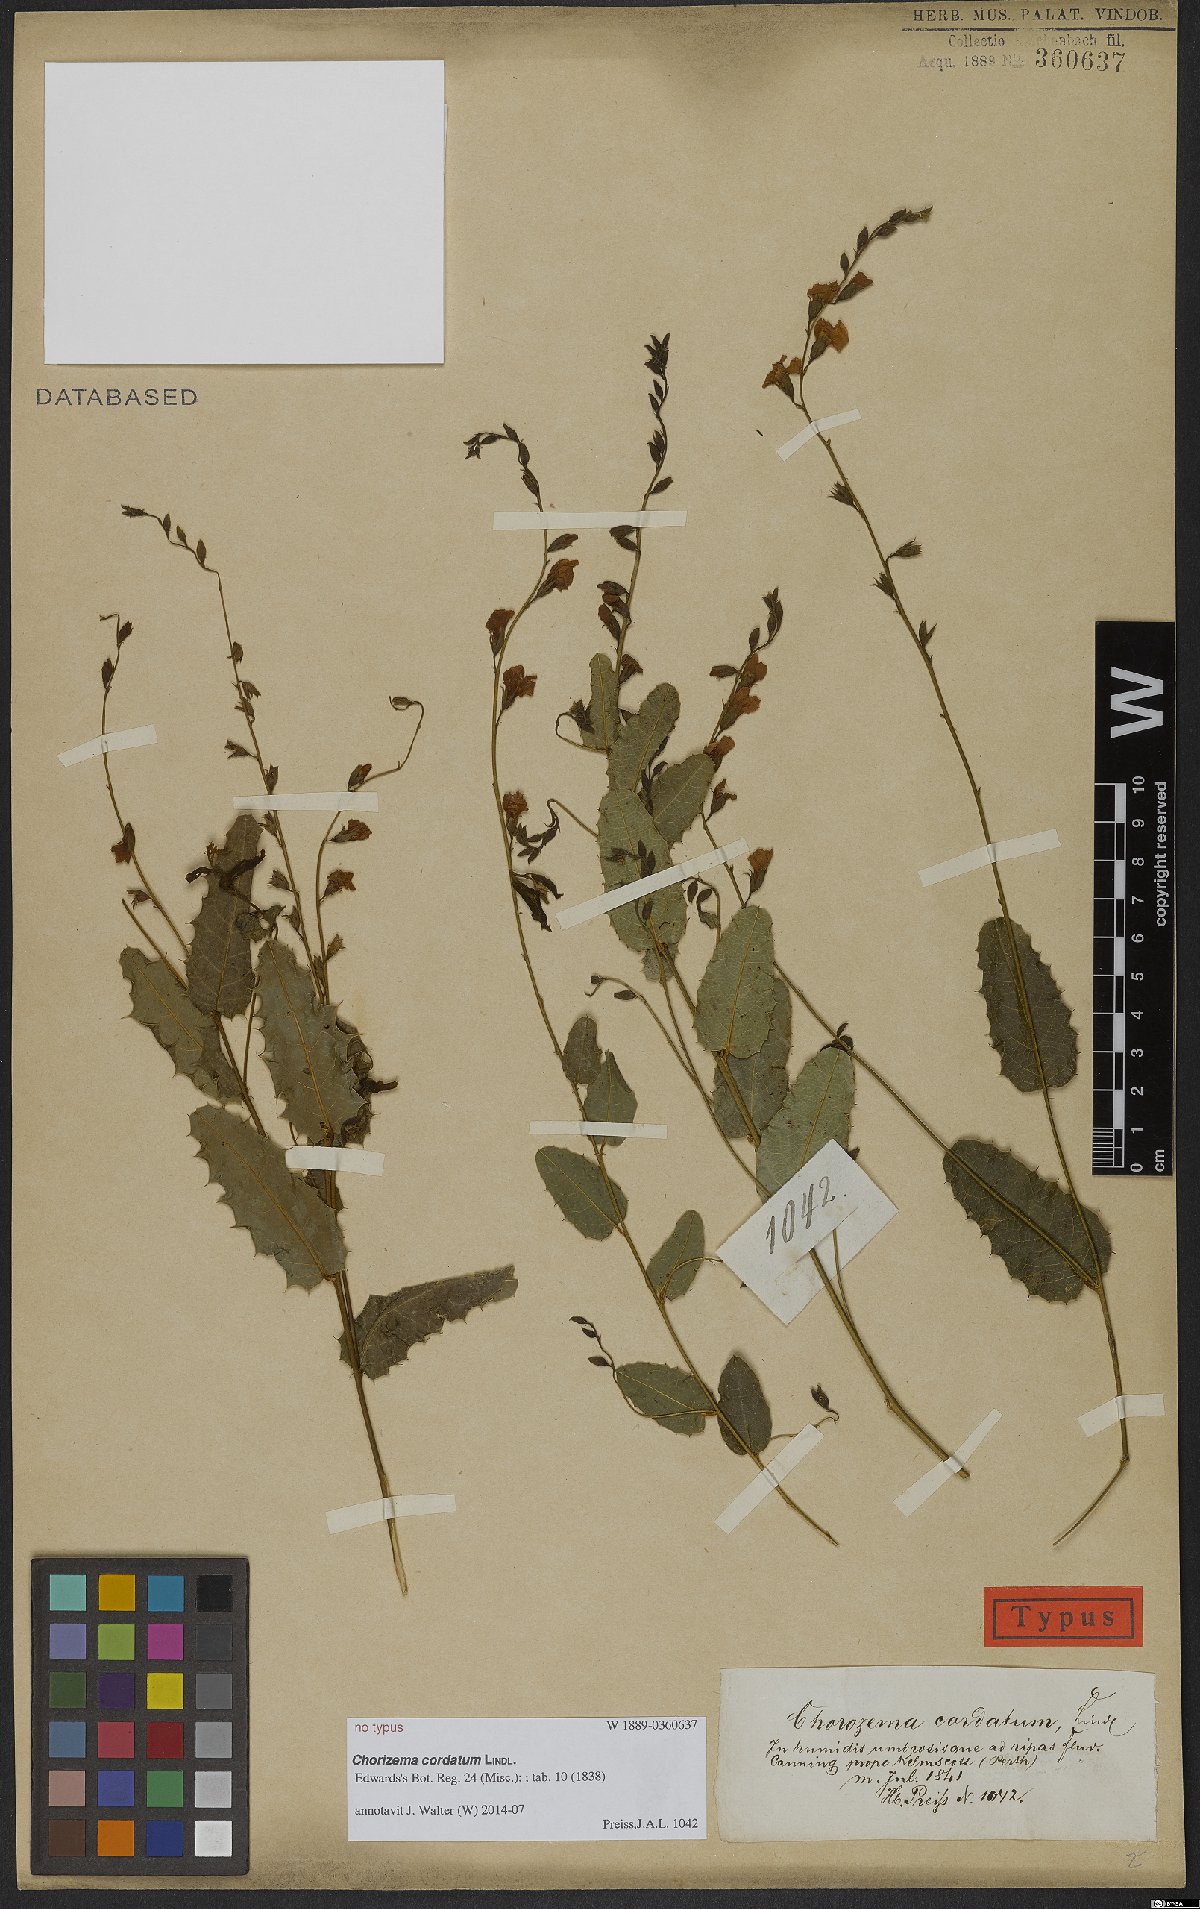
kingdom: Plantae
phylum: Tracheophyta
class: Magnoliopsida
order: Fabales
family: Fabaceae
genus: Chorizema
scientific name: Chorizema cordatum
